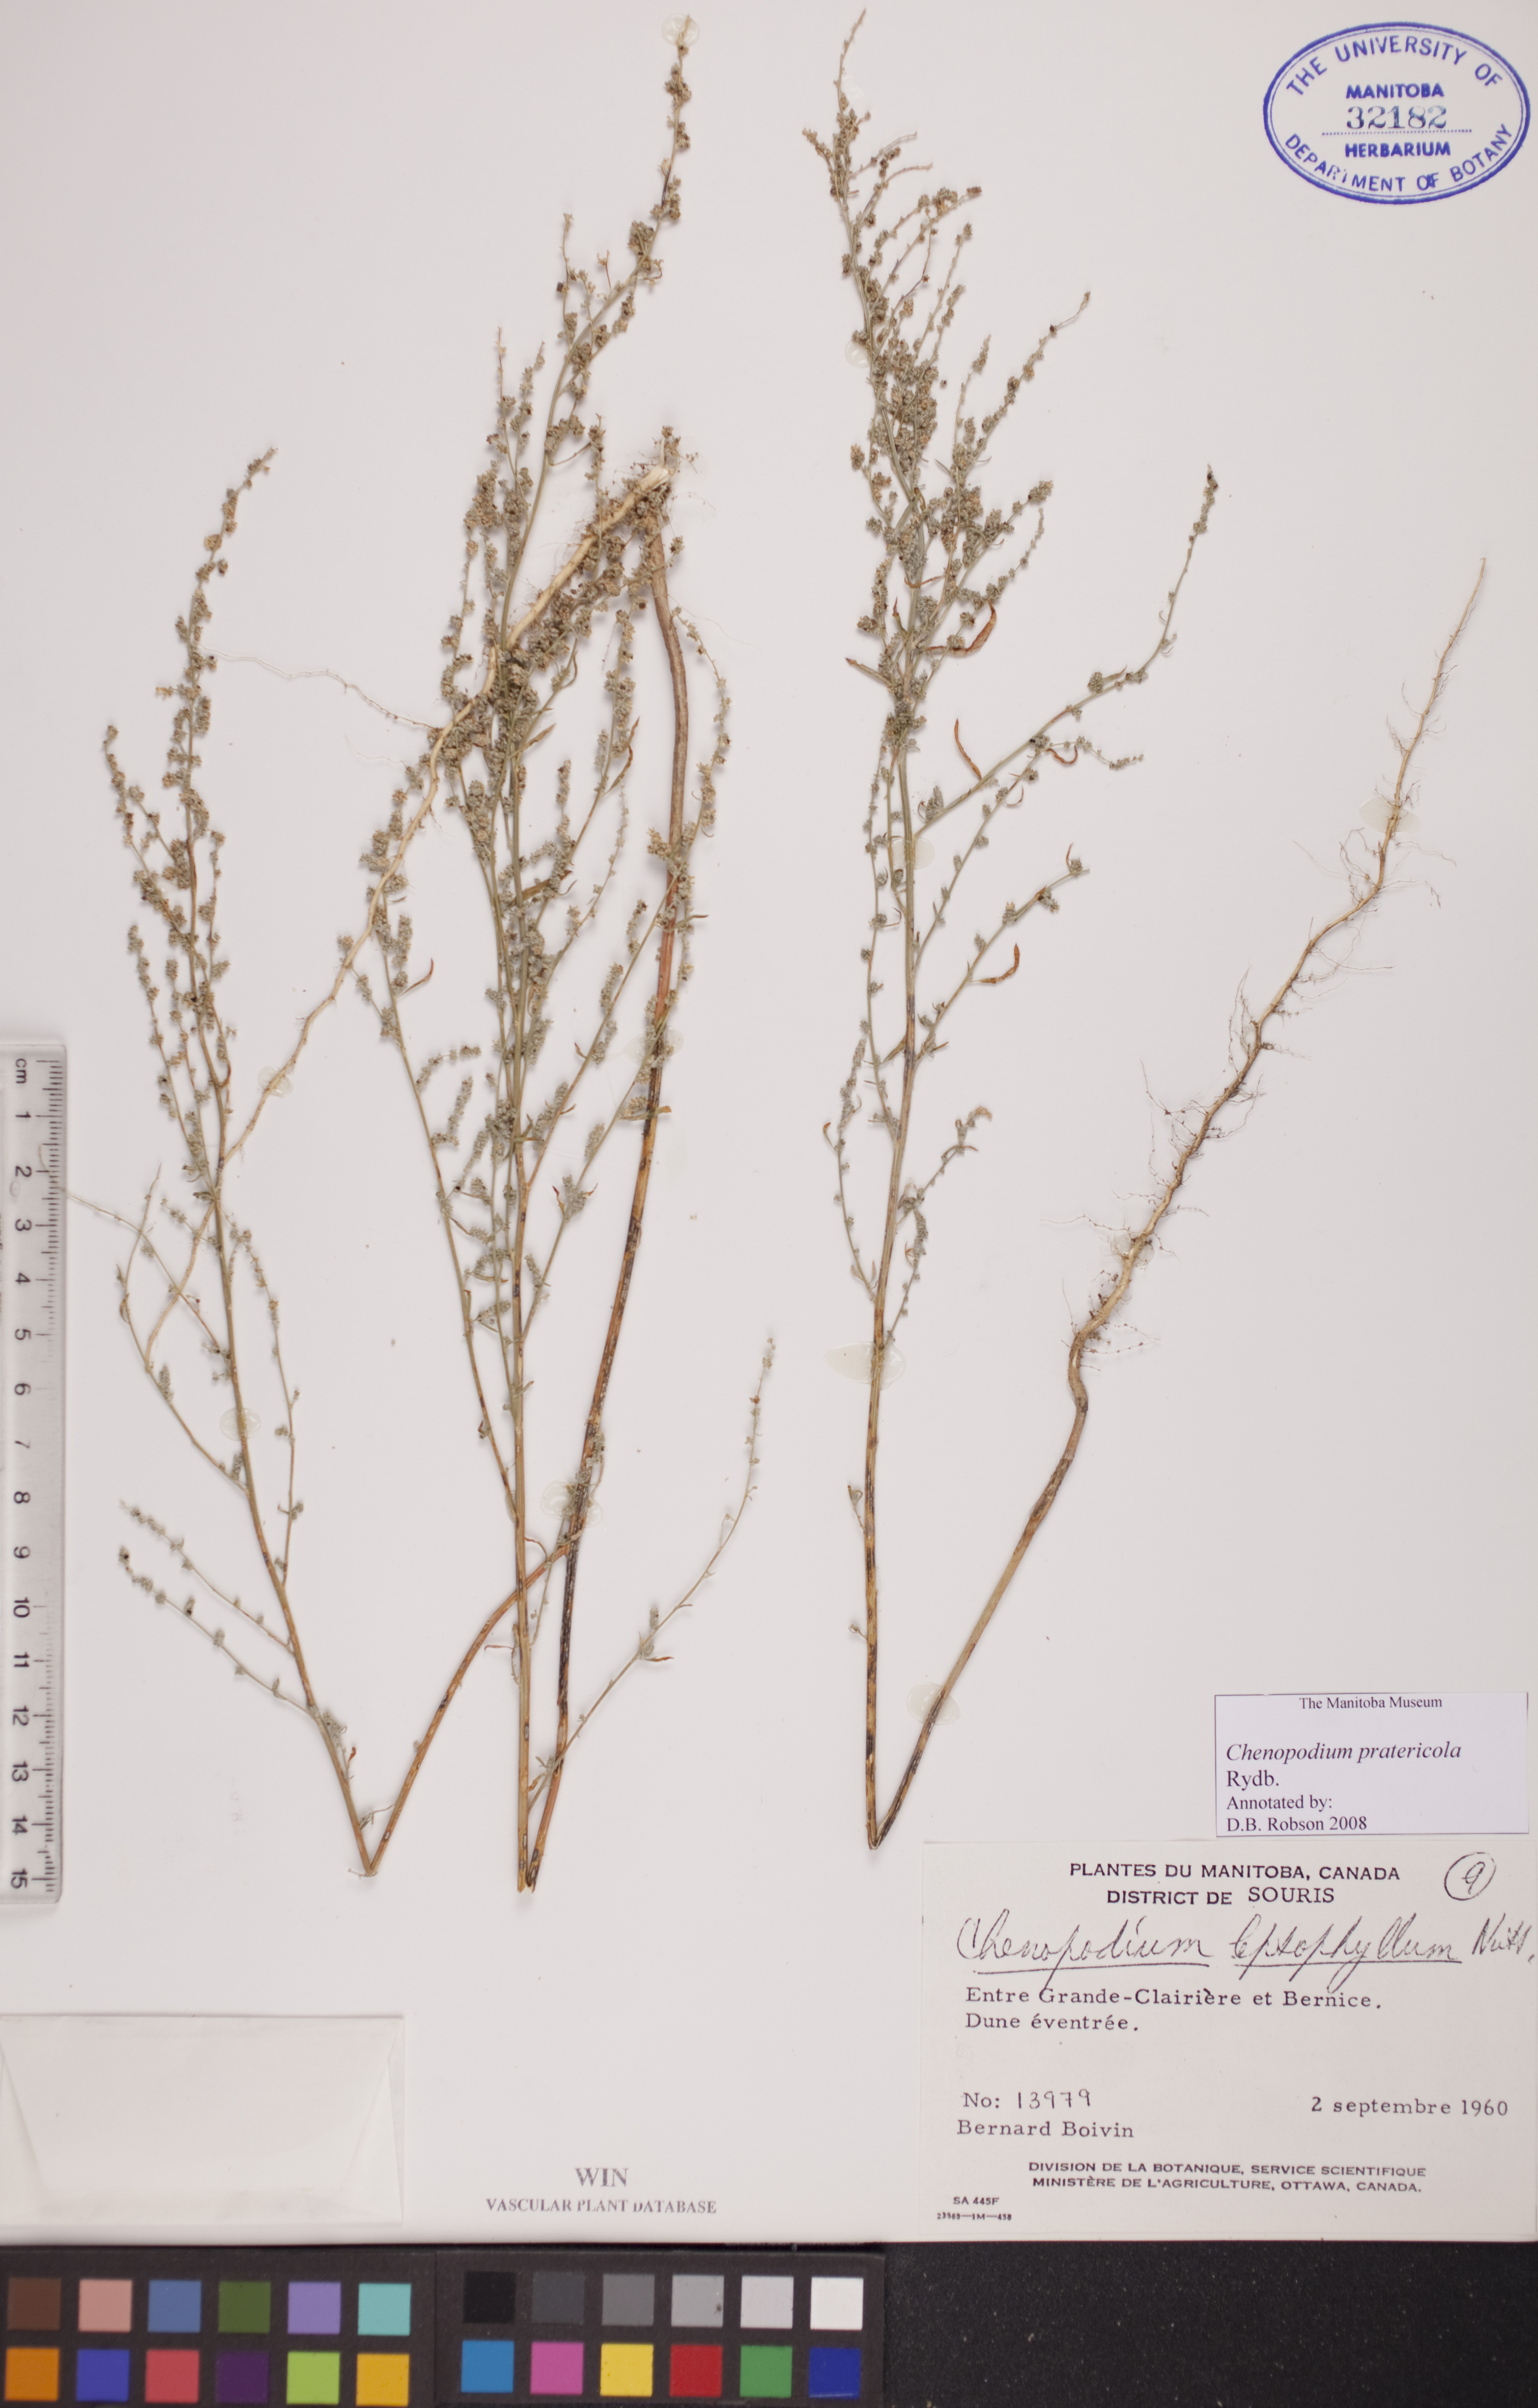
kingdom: Plantae
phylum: Tracheophyta
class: Magnoliopsida
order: Caryophyllales
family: Amaranthaceae
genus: Chenopodium
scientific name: Chenopodium pratericola
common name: Desert goosefoot
